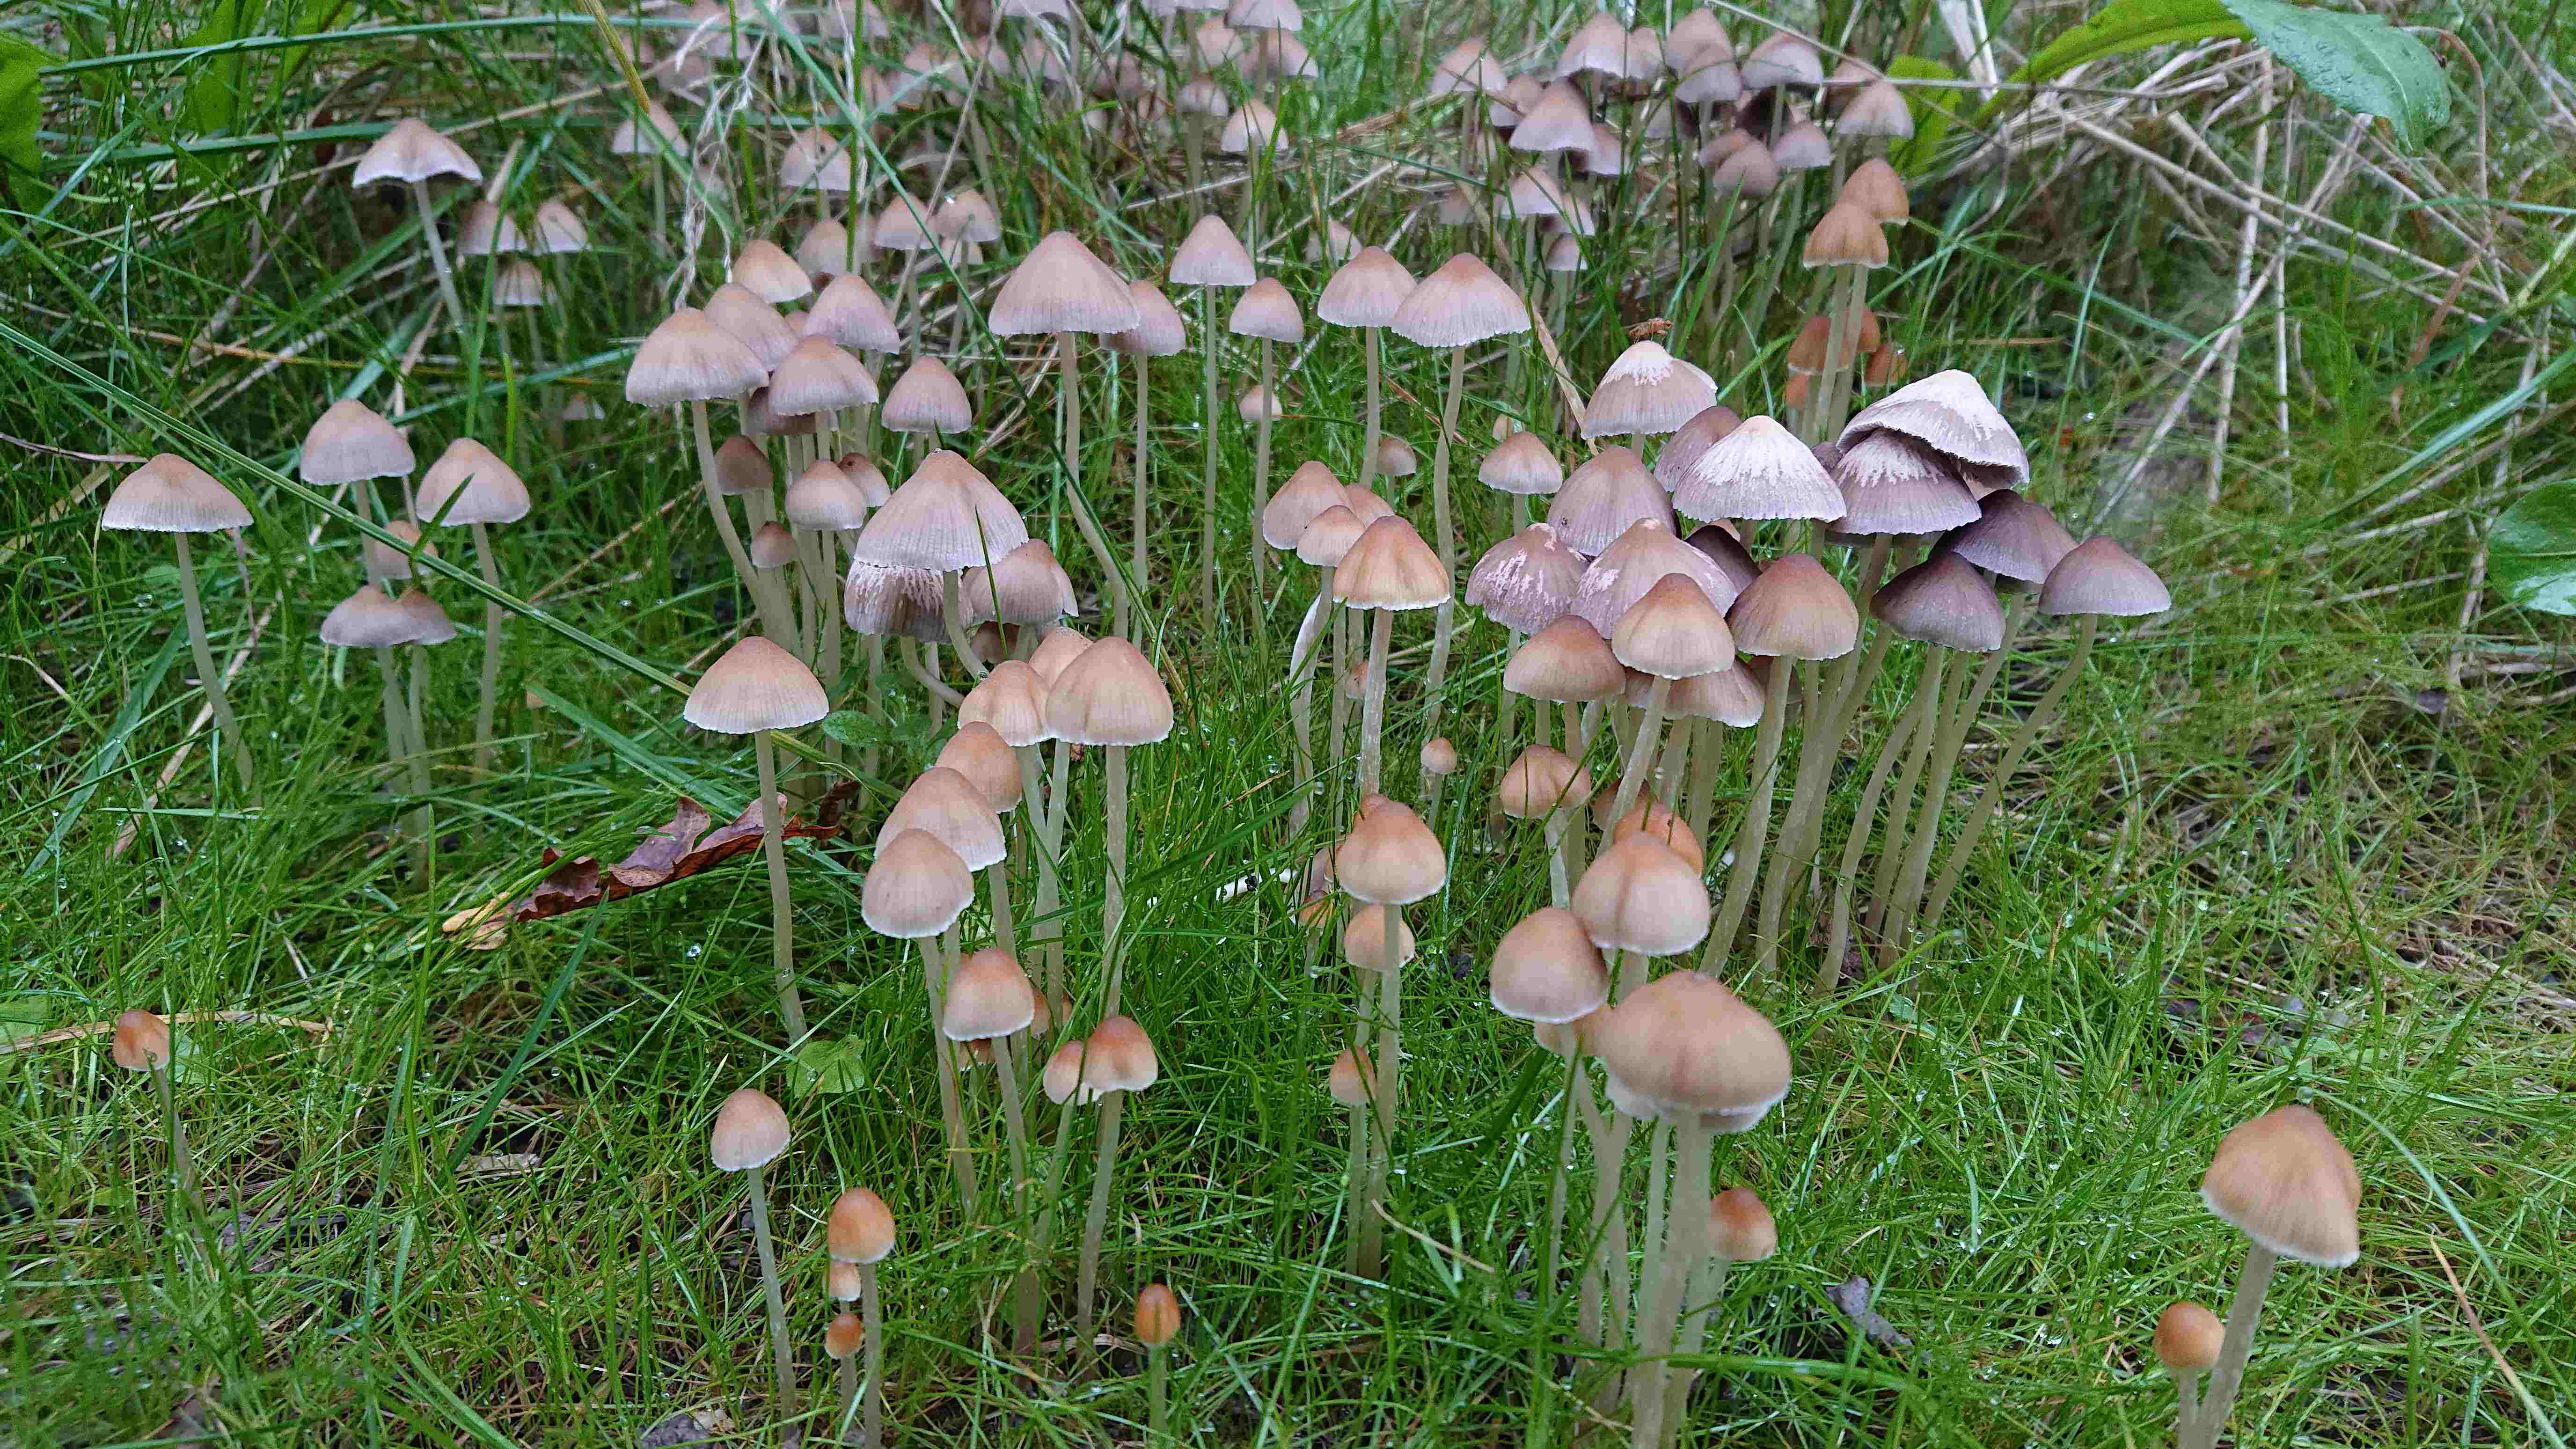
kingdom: Fungi
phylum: Basidiomycota
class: Agaricomycetes
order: Agaricales
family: Psathyrellaceae
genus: Psathyrella
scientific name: Psathyrella
